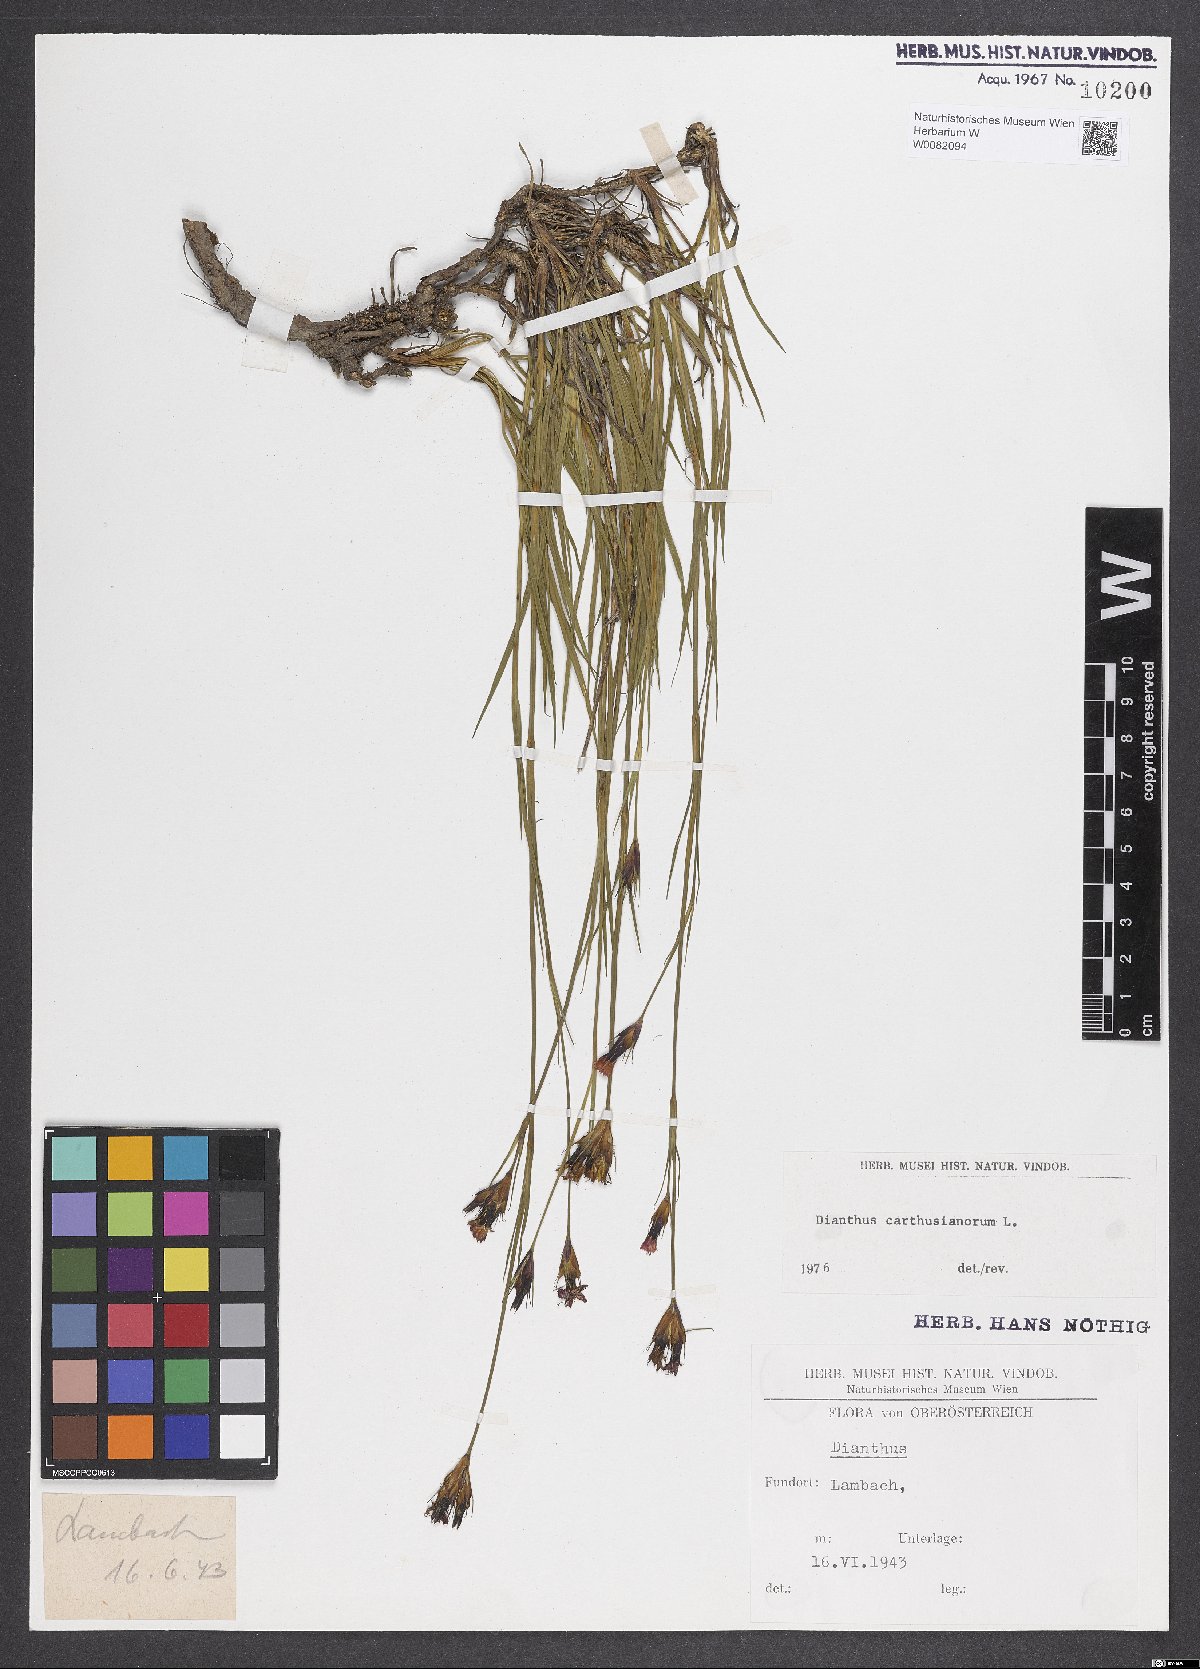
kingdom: Plantae
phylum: Tracheophyta
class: Magnoliopsida
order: Caryophyllales
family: Caryophyllaceae
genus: Dianthus
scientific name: Dianthus carthusianorum
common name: Carthusian pink
